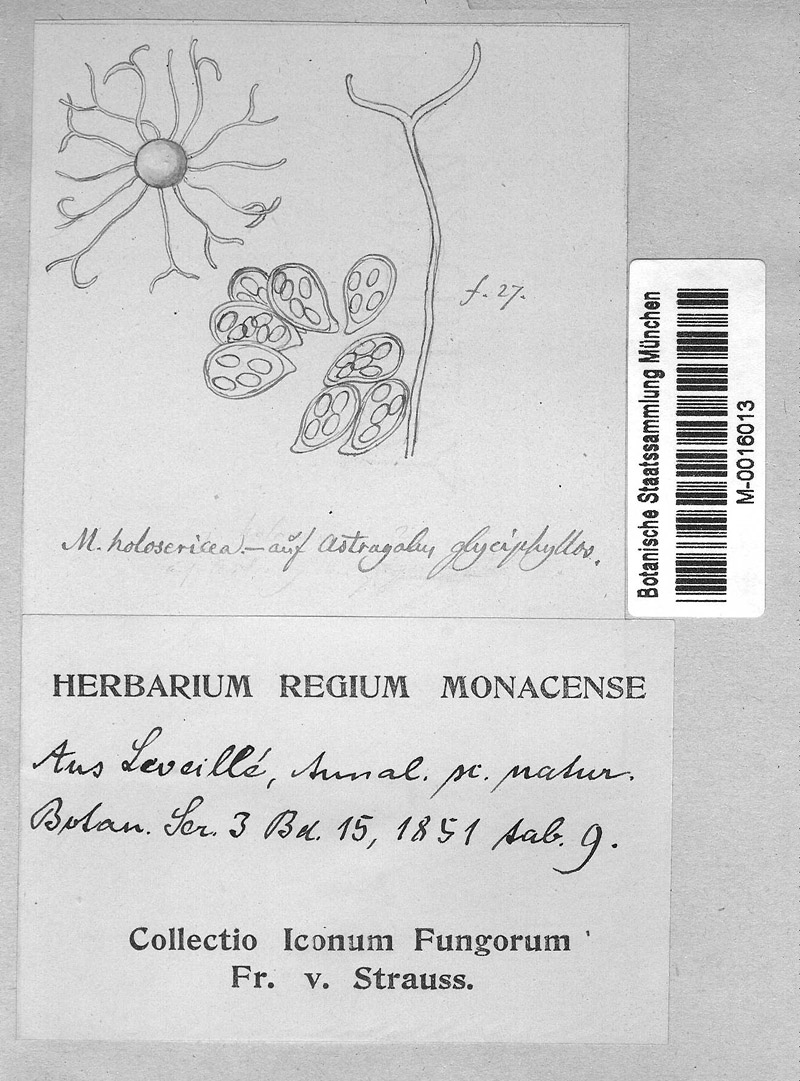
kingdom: Plantae
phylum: Tracheophyta
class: Magnoliopsida
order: Fabales
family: Fabaceae
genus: Astragalus
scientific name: Astragalus glycyphyllos
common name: Wild liquorice
